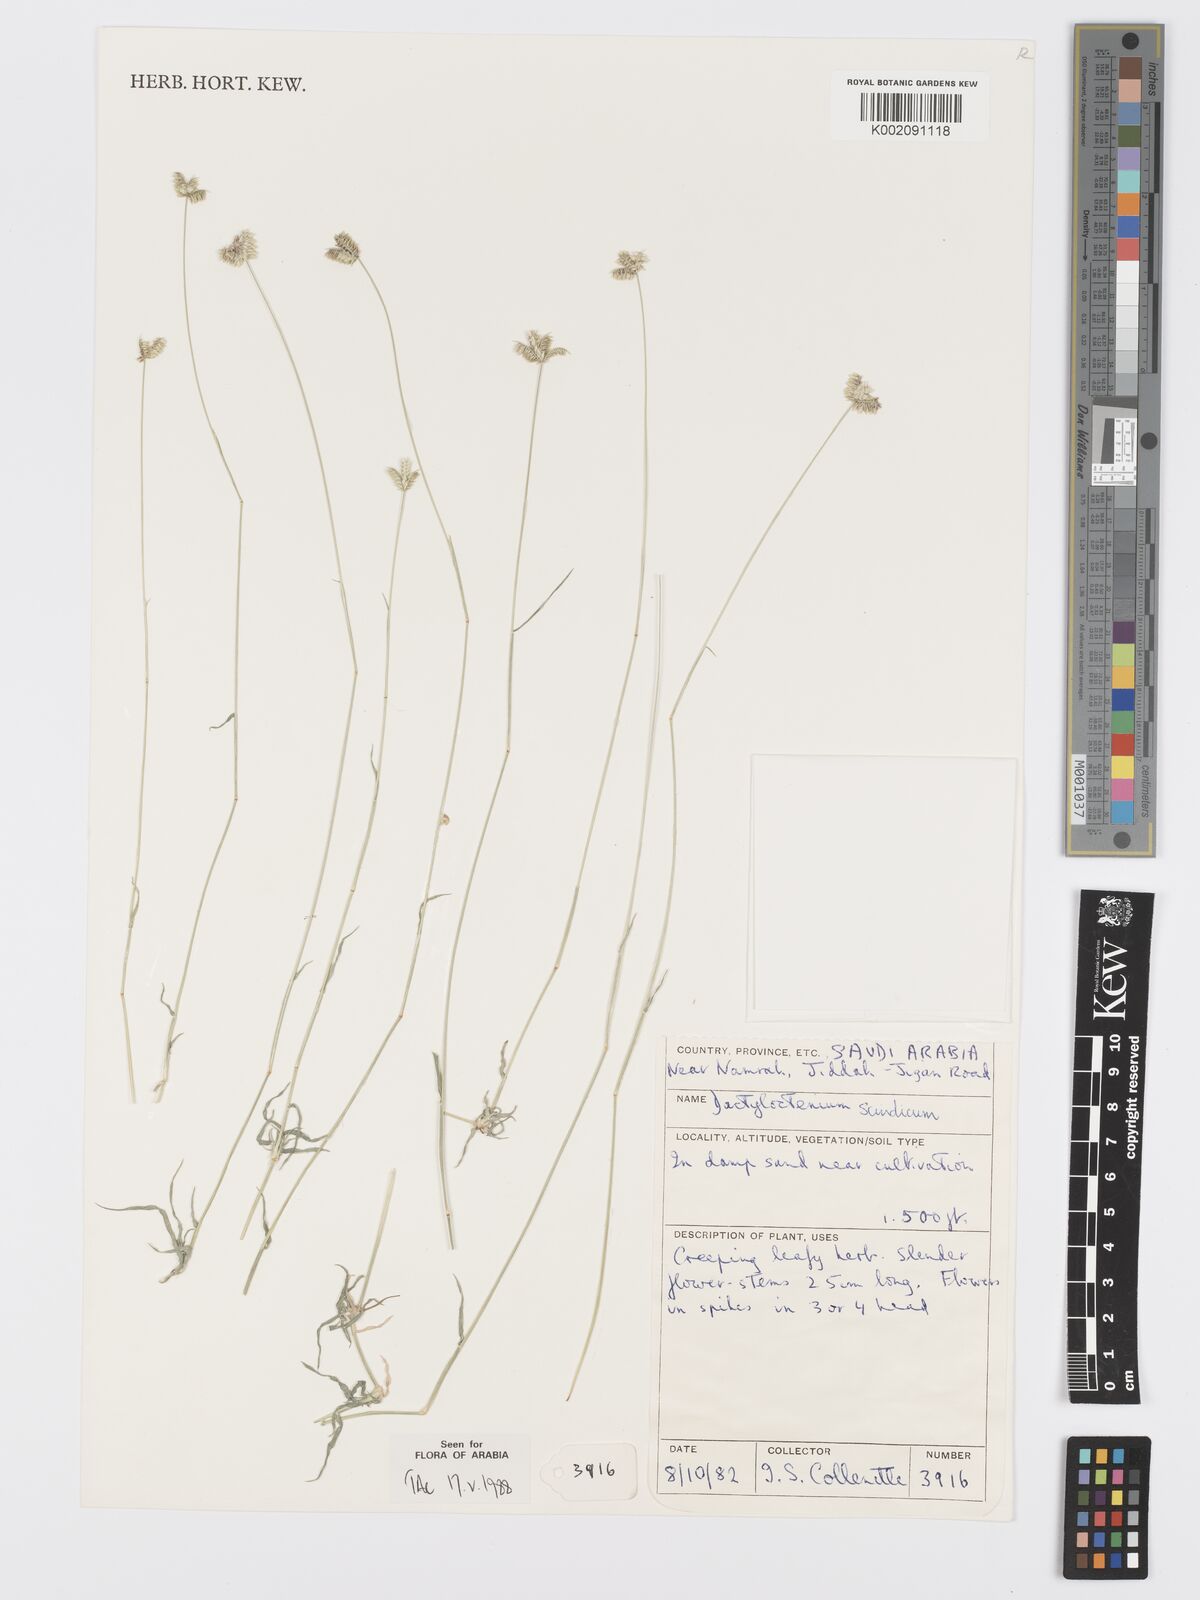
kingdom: Plantae
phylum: Tracheophyta
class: Liliopsida
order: Poales
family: Poaceae
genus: Dactyloctenium
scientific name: Dactyloctenium scindicum
